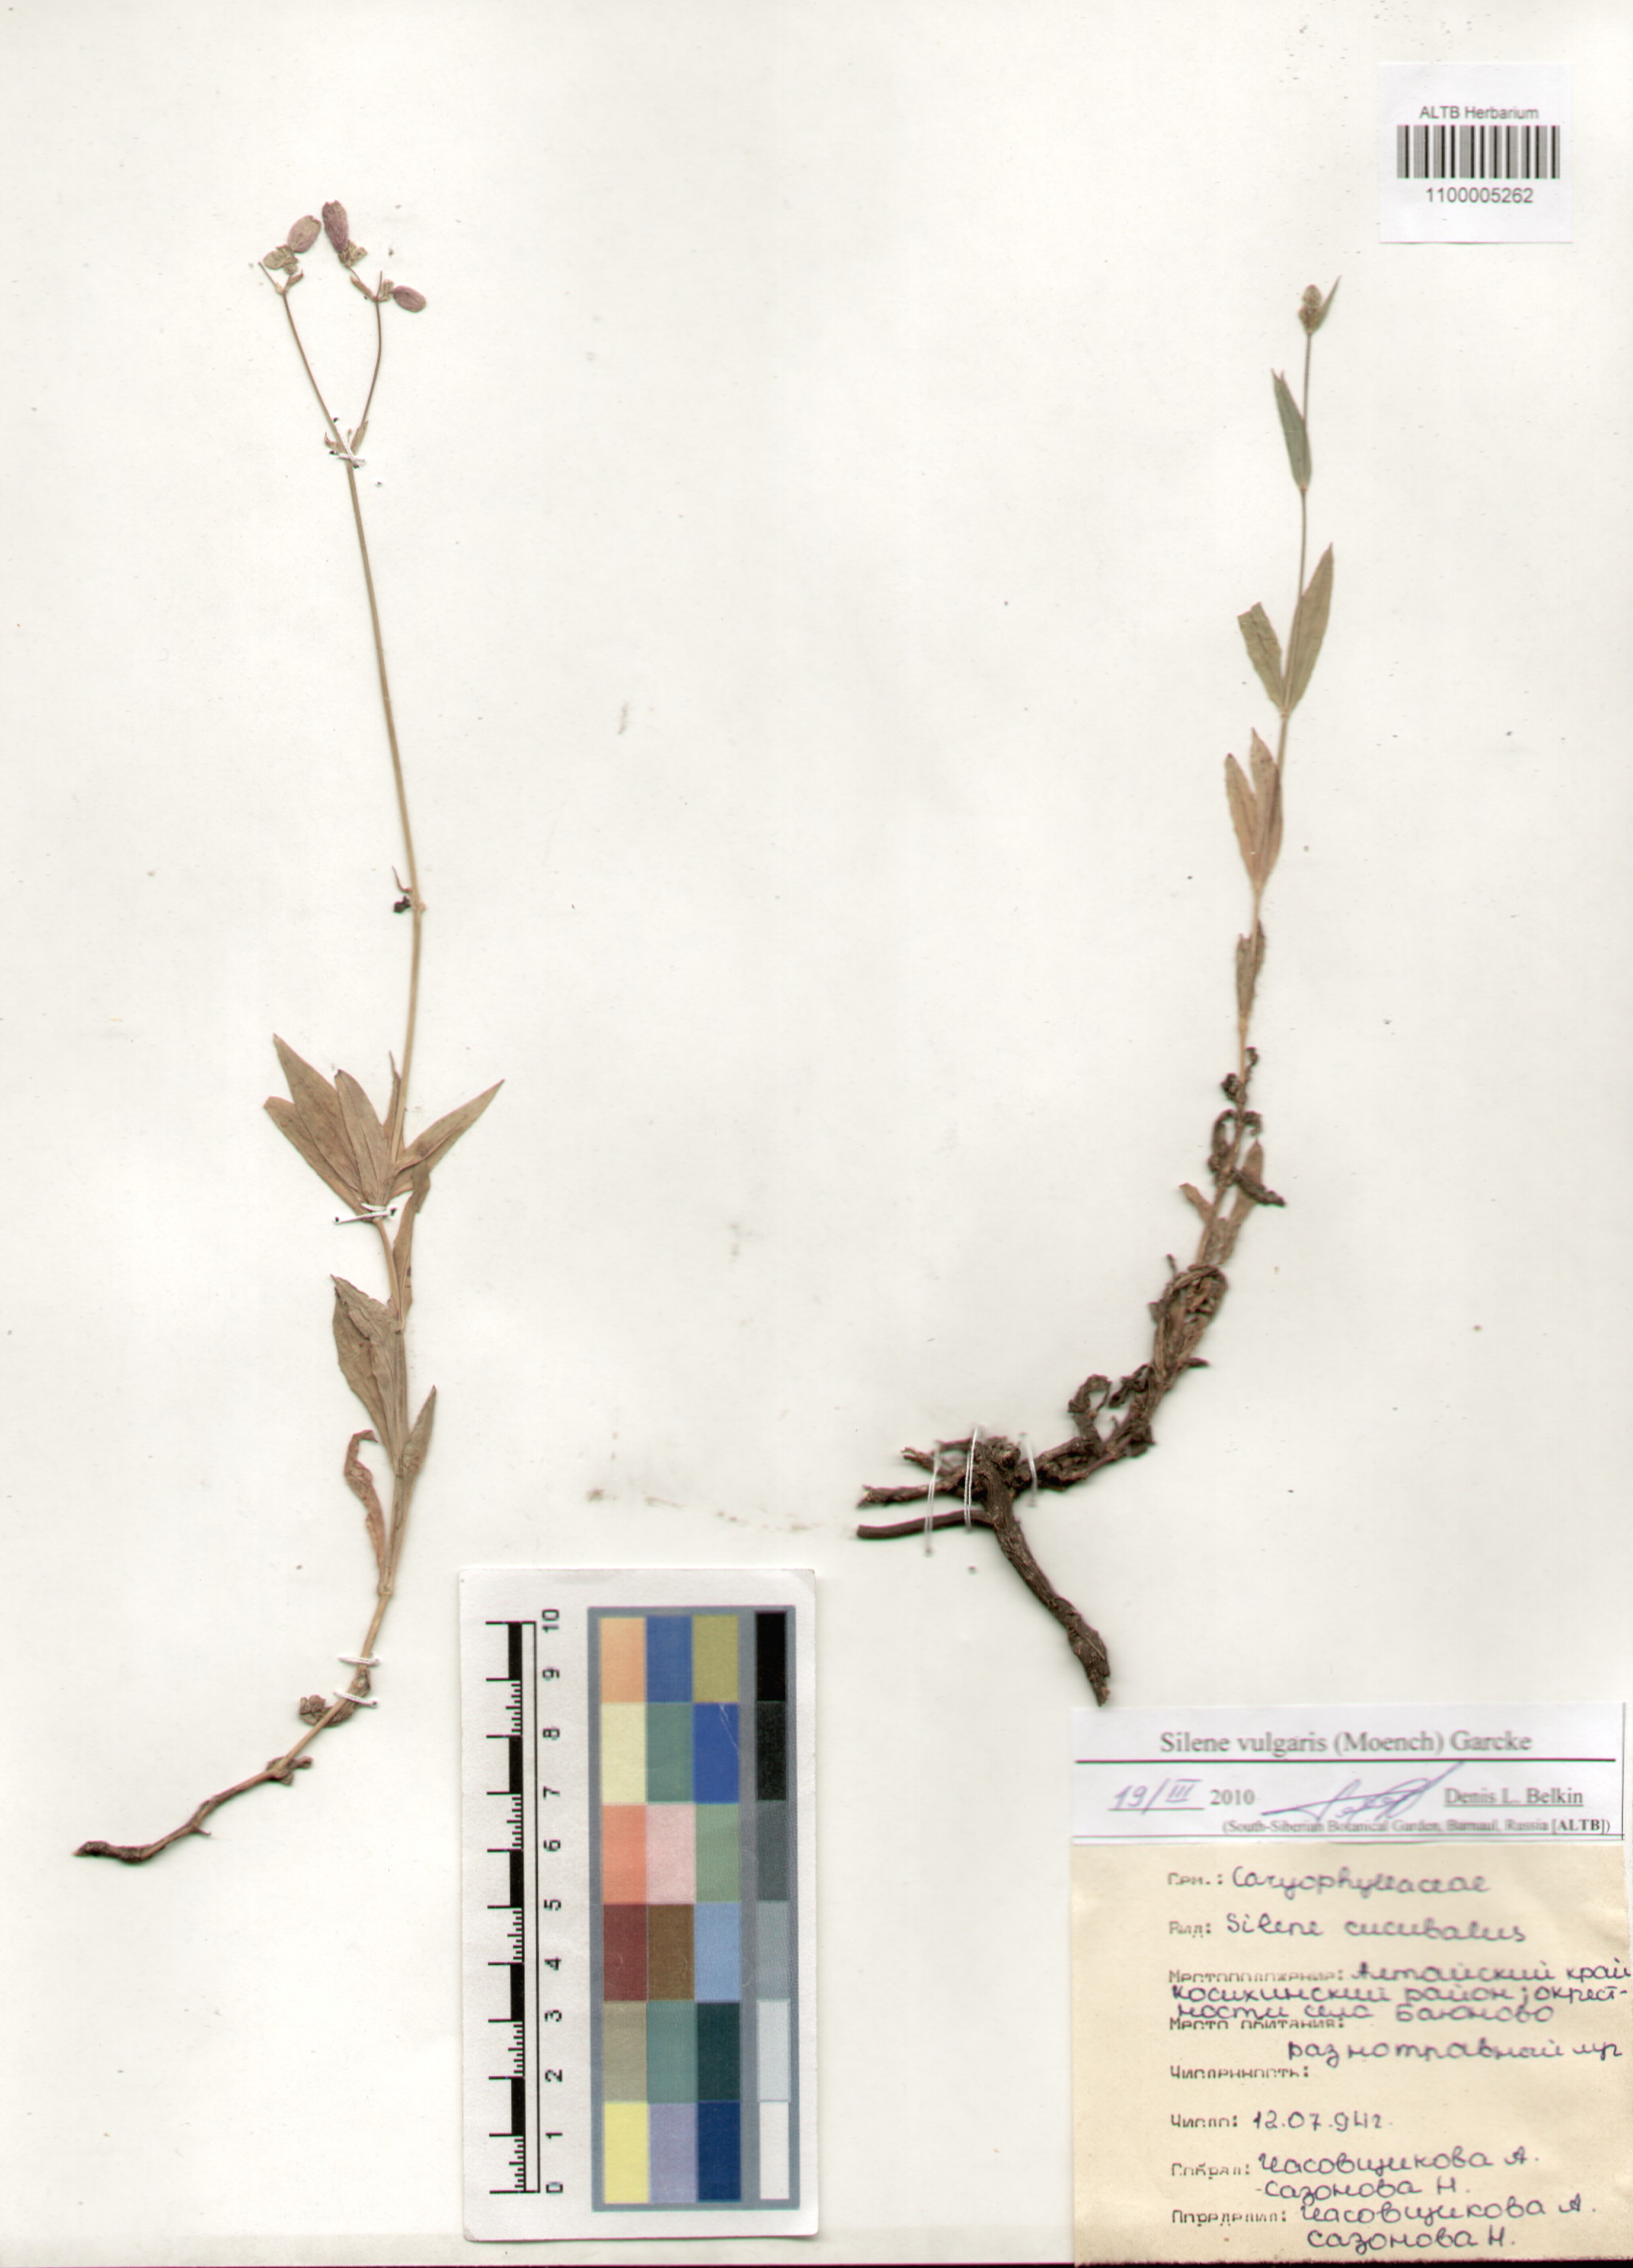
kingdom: Plantae
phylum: Tracheophyta
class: Magnoliopsida
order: Caryophyllales
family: Caryophyllaceae
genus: Silene
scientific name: Silene vulgaris
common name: Bladder campion
